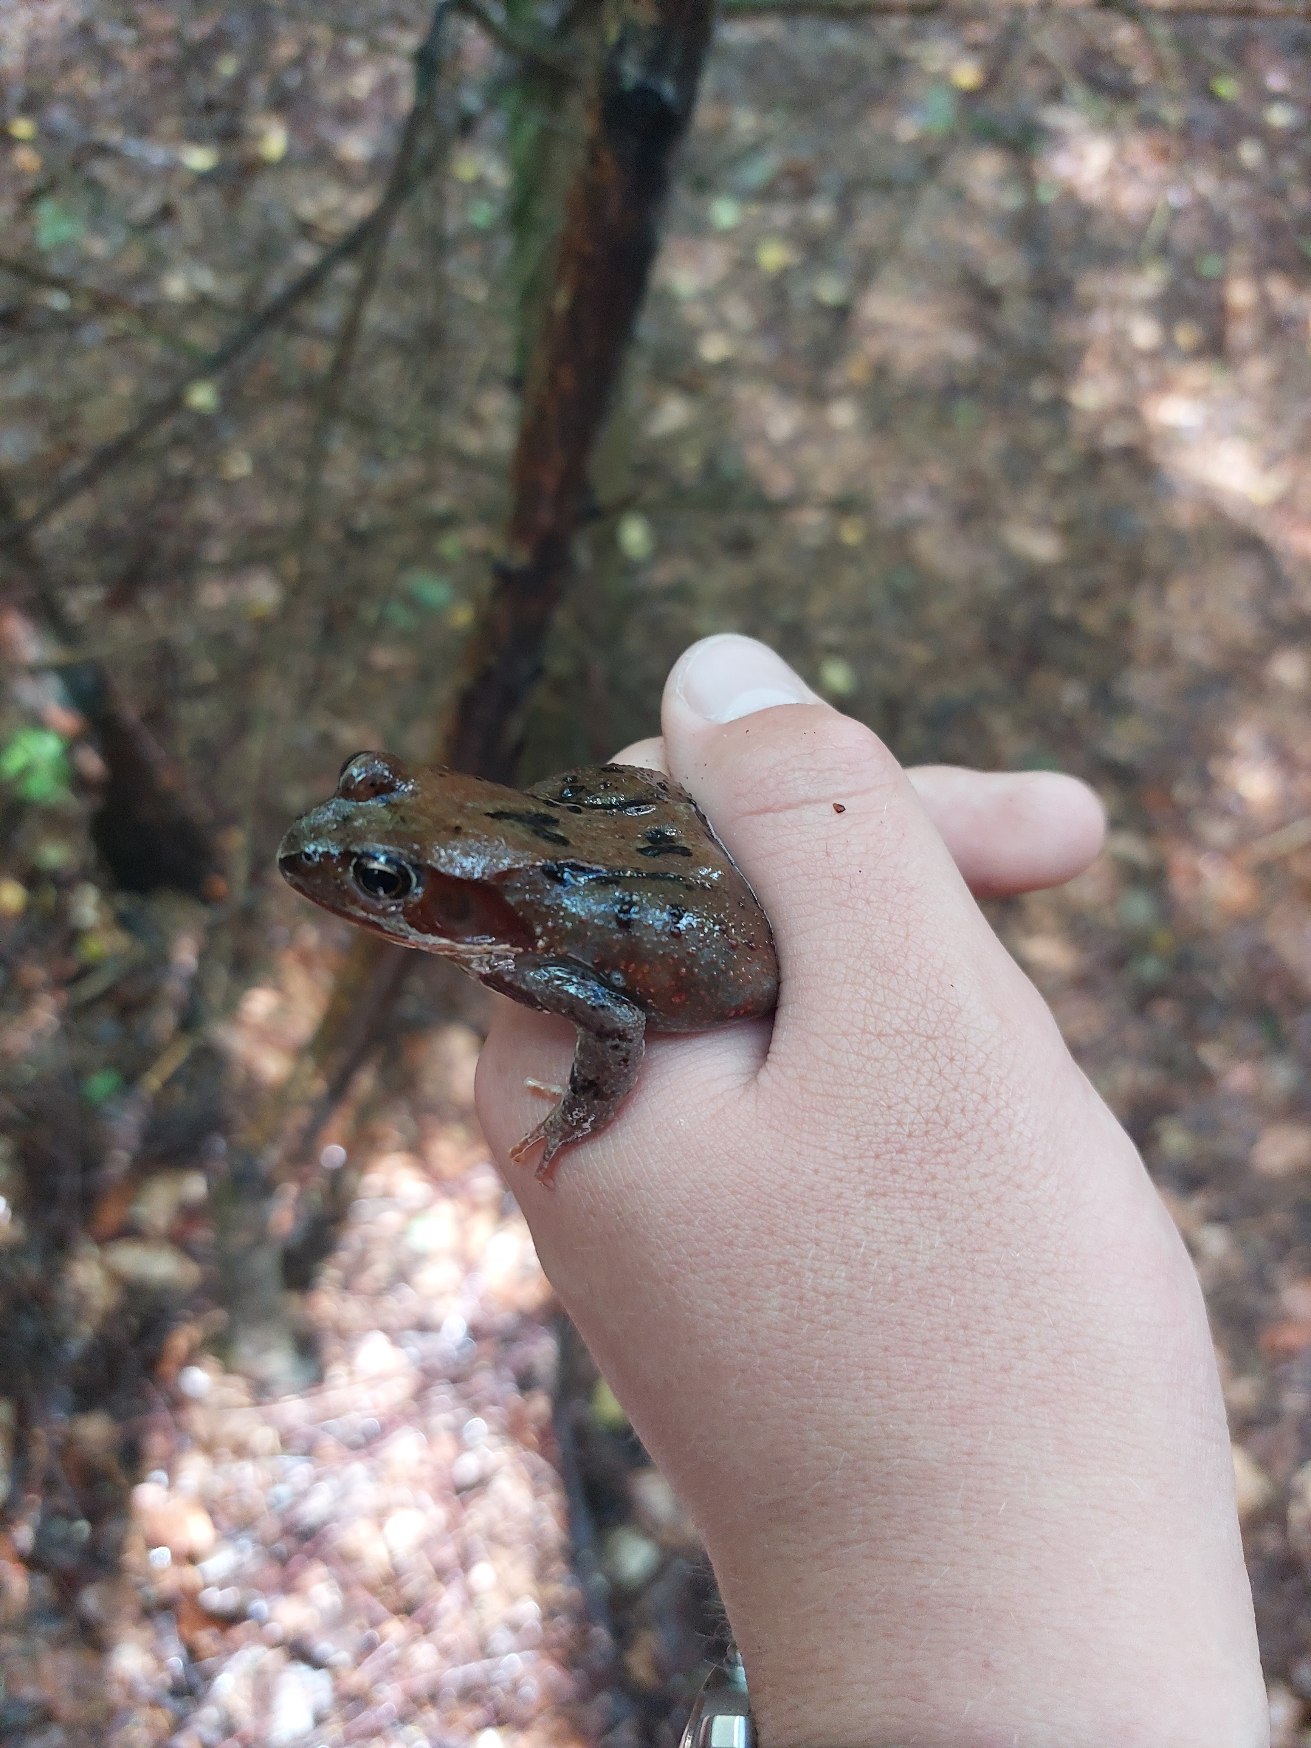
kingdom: Animalia
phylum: Chordata
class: Amphibia
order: Anura
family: Ranidae
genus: Rana
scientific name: Rana temporaria
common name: Butsnudet frø
